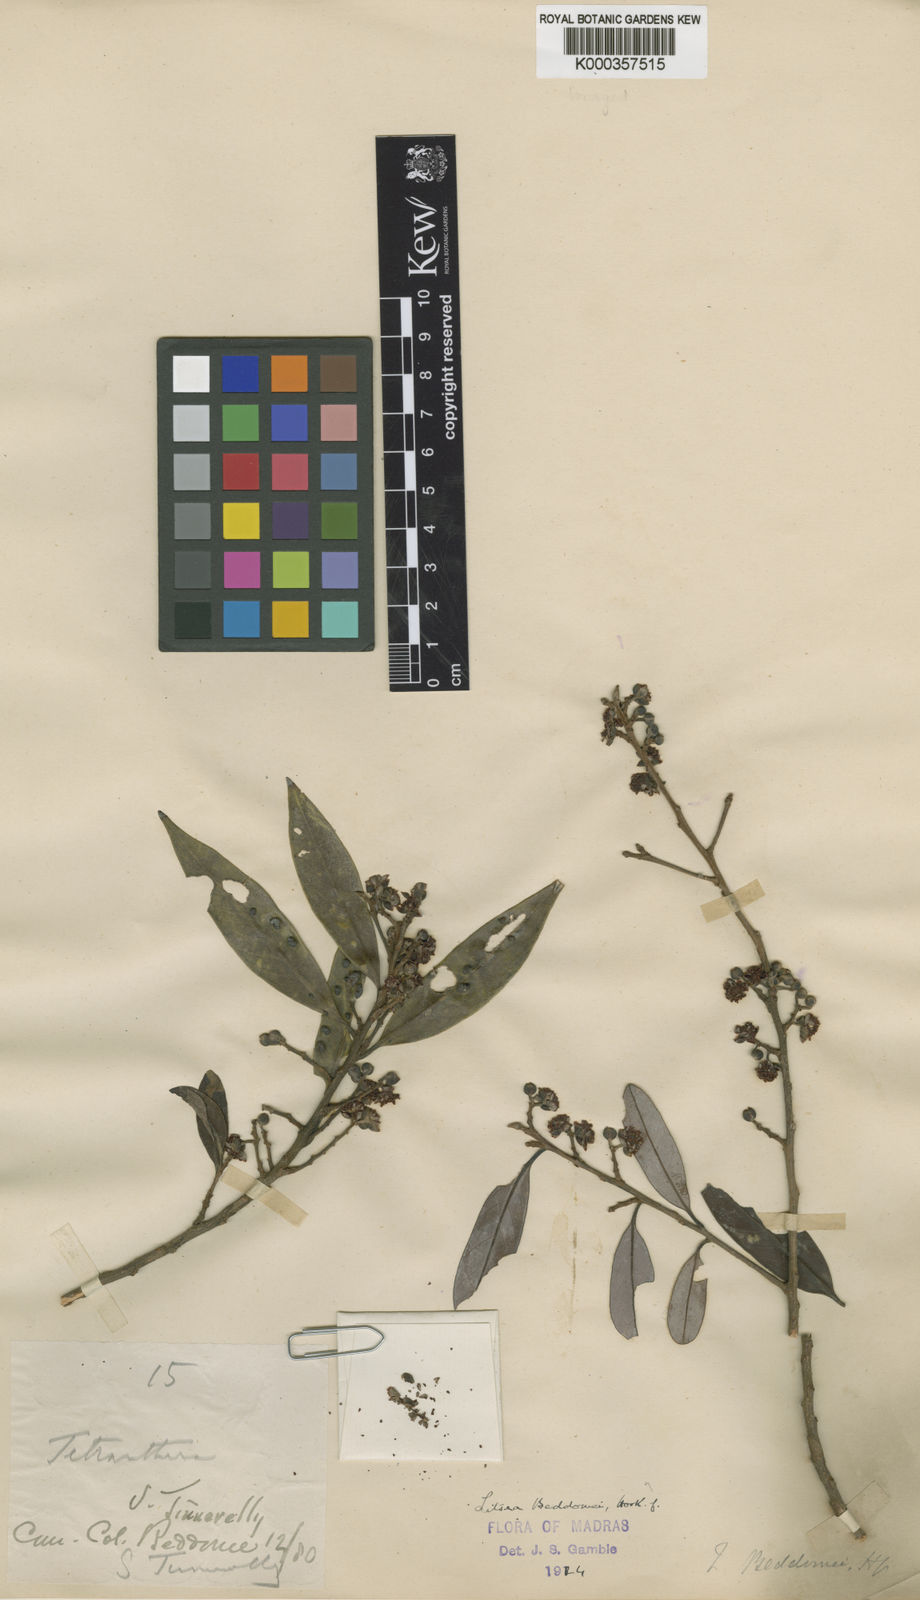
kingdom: Plantae
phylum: Tracheophyta
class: Magnoliopsida
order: Laurales
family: Lauraceae
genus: Litsea
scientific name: Litsea beddomei
